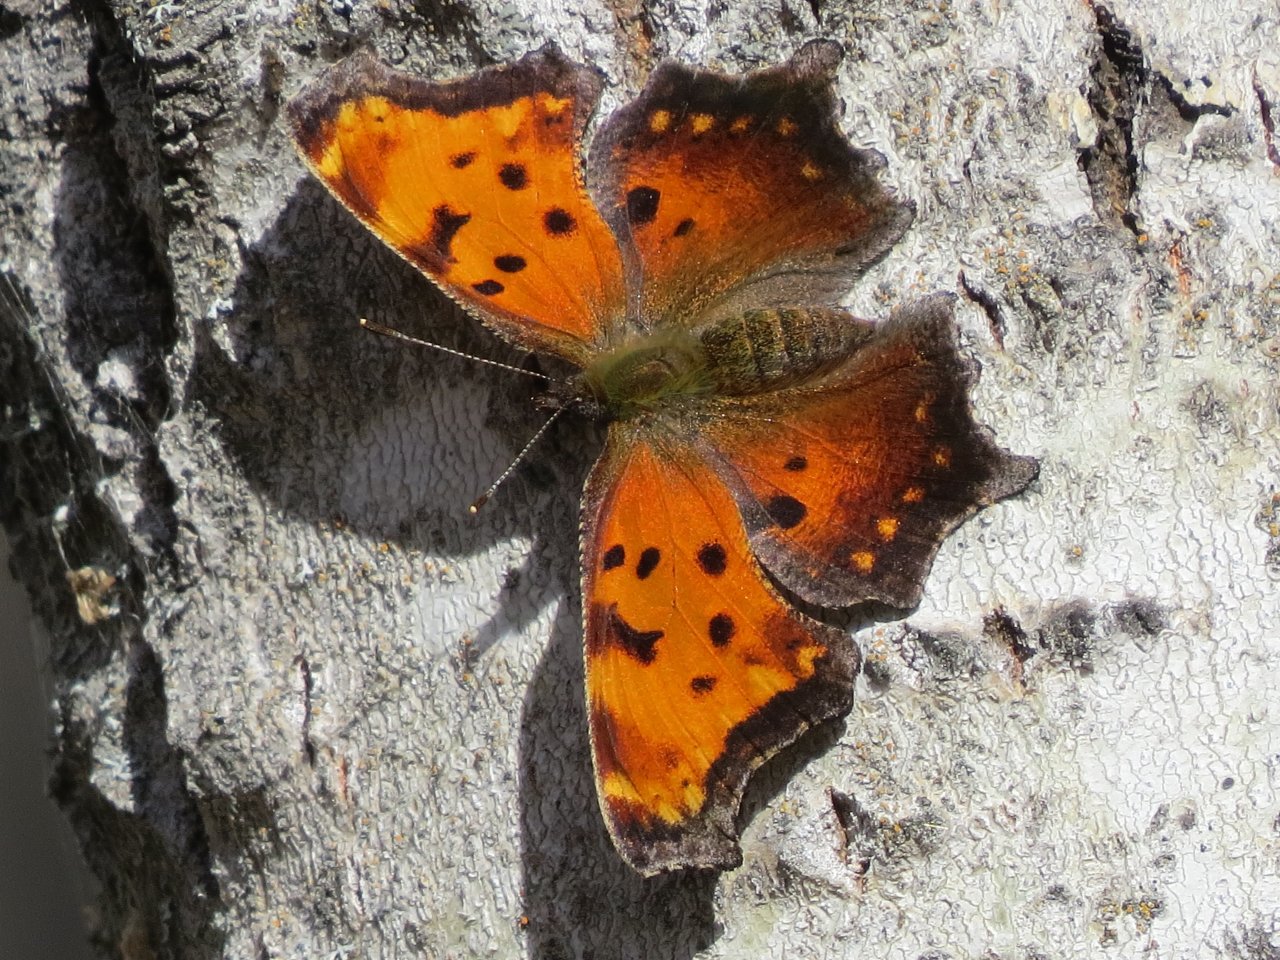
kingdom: Animalia
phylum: Arthropoda
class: Insecta
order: Lepidoptera
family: Nymphalidae
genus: Polygonia
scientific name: Polygonia progne
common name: Gray Comma
